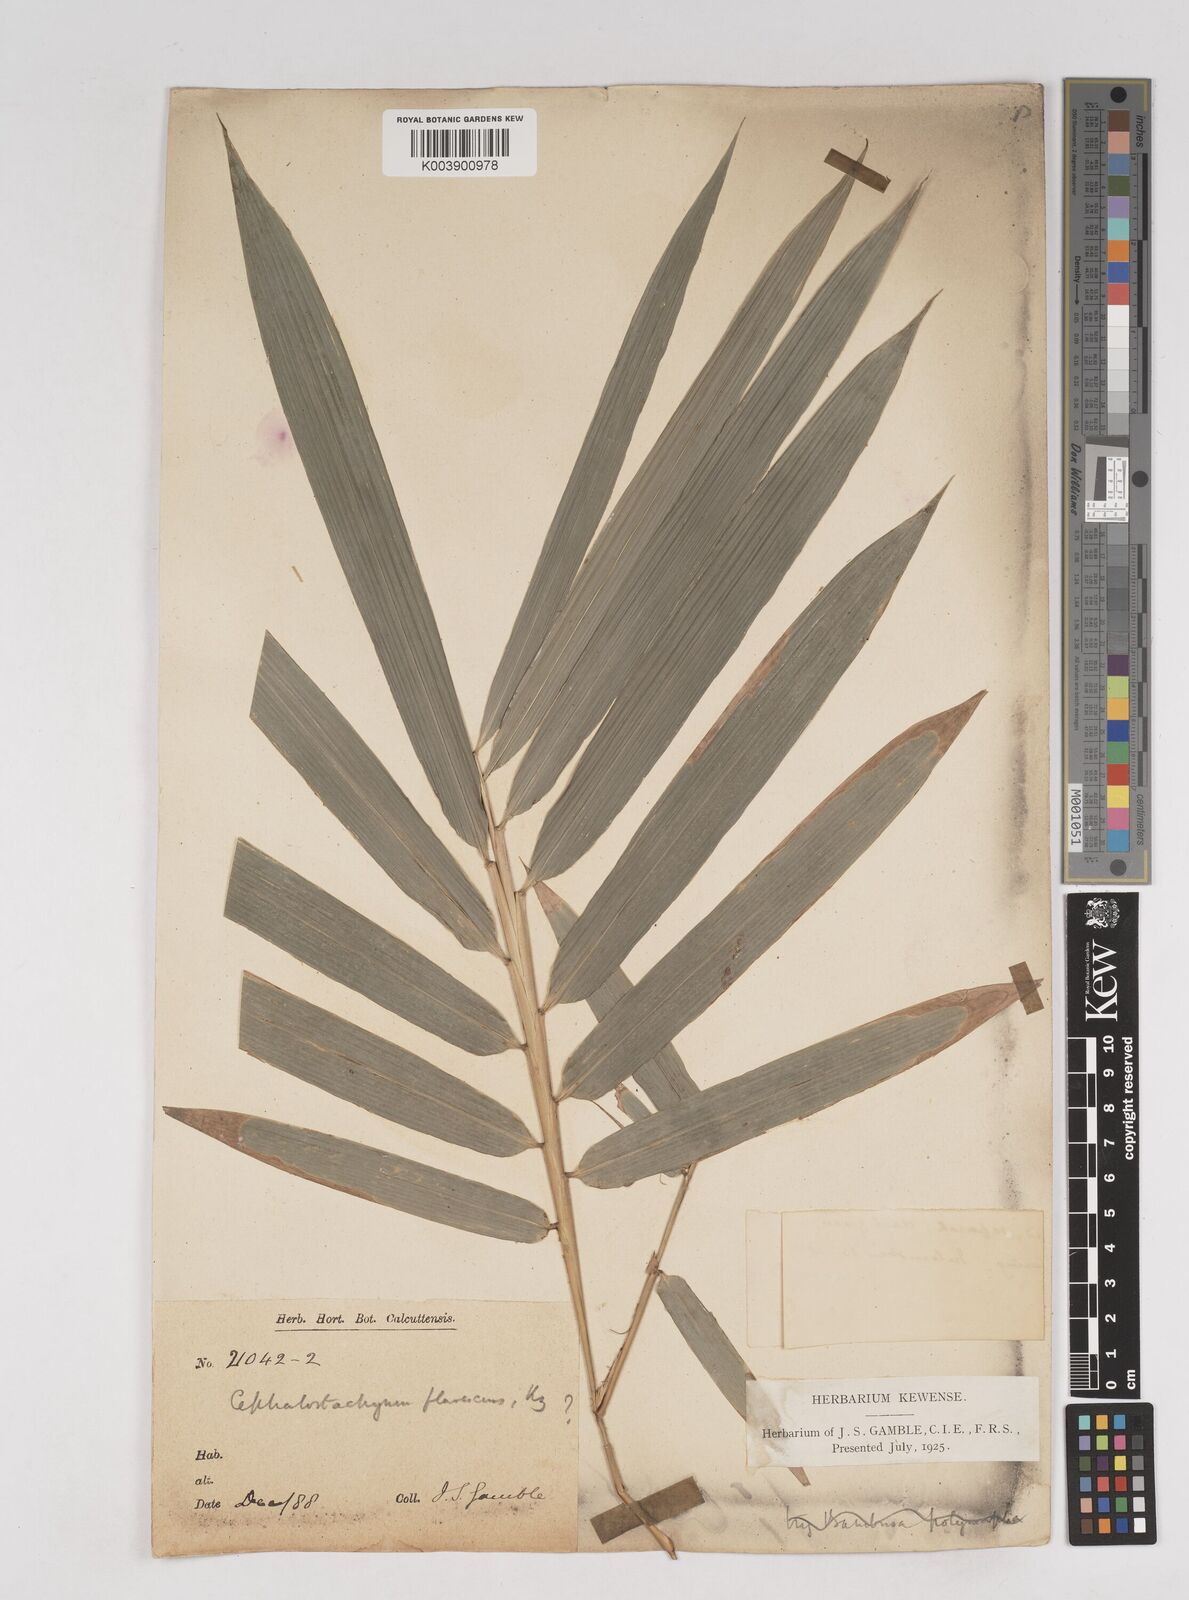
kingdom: Plantae
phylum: Tracheophyta
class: Liliopsida
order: Poales
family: Poaceae
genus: Cephalostachyum
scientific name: Cephalostachyum flavescens
